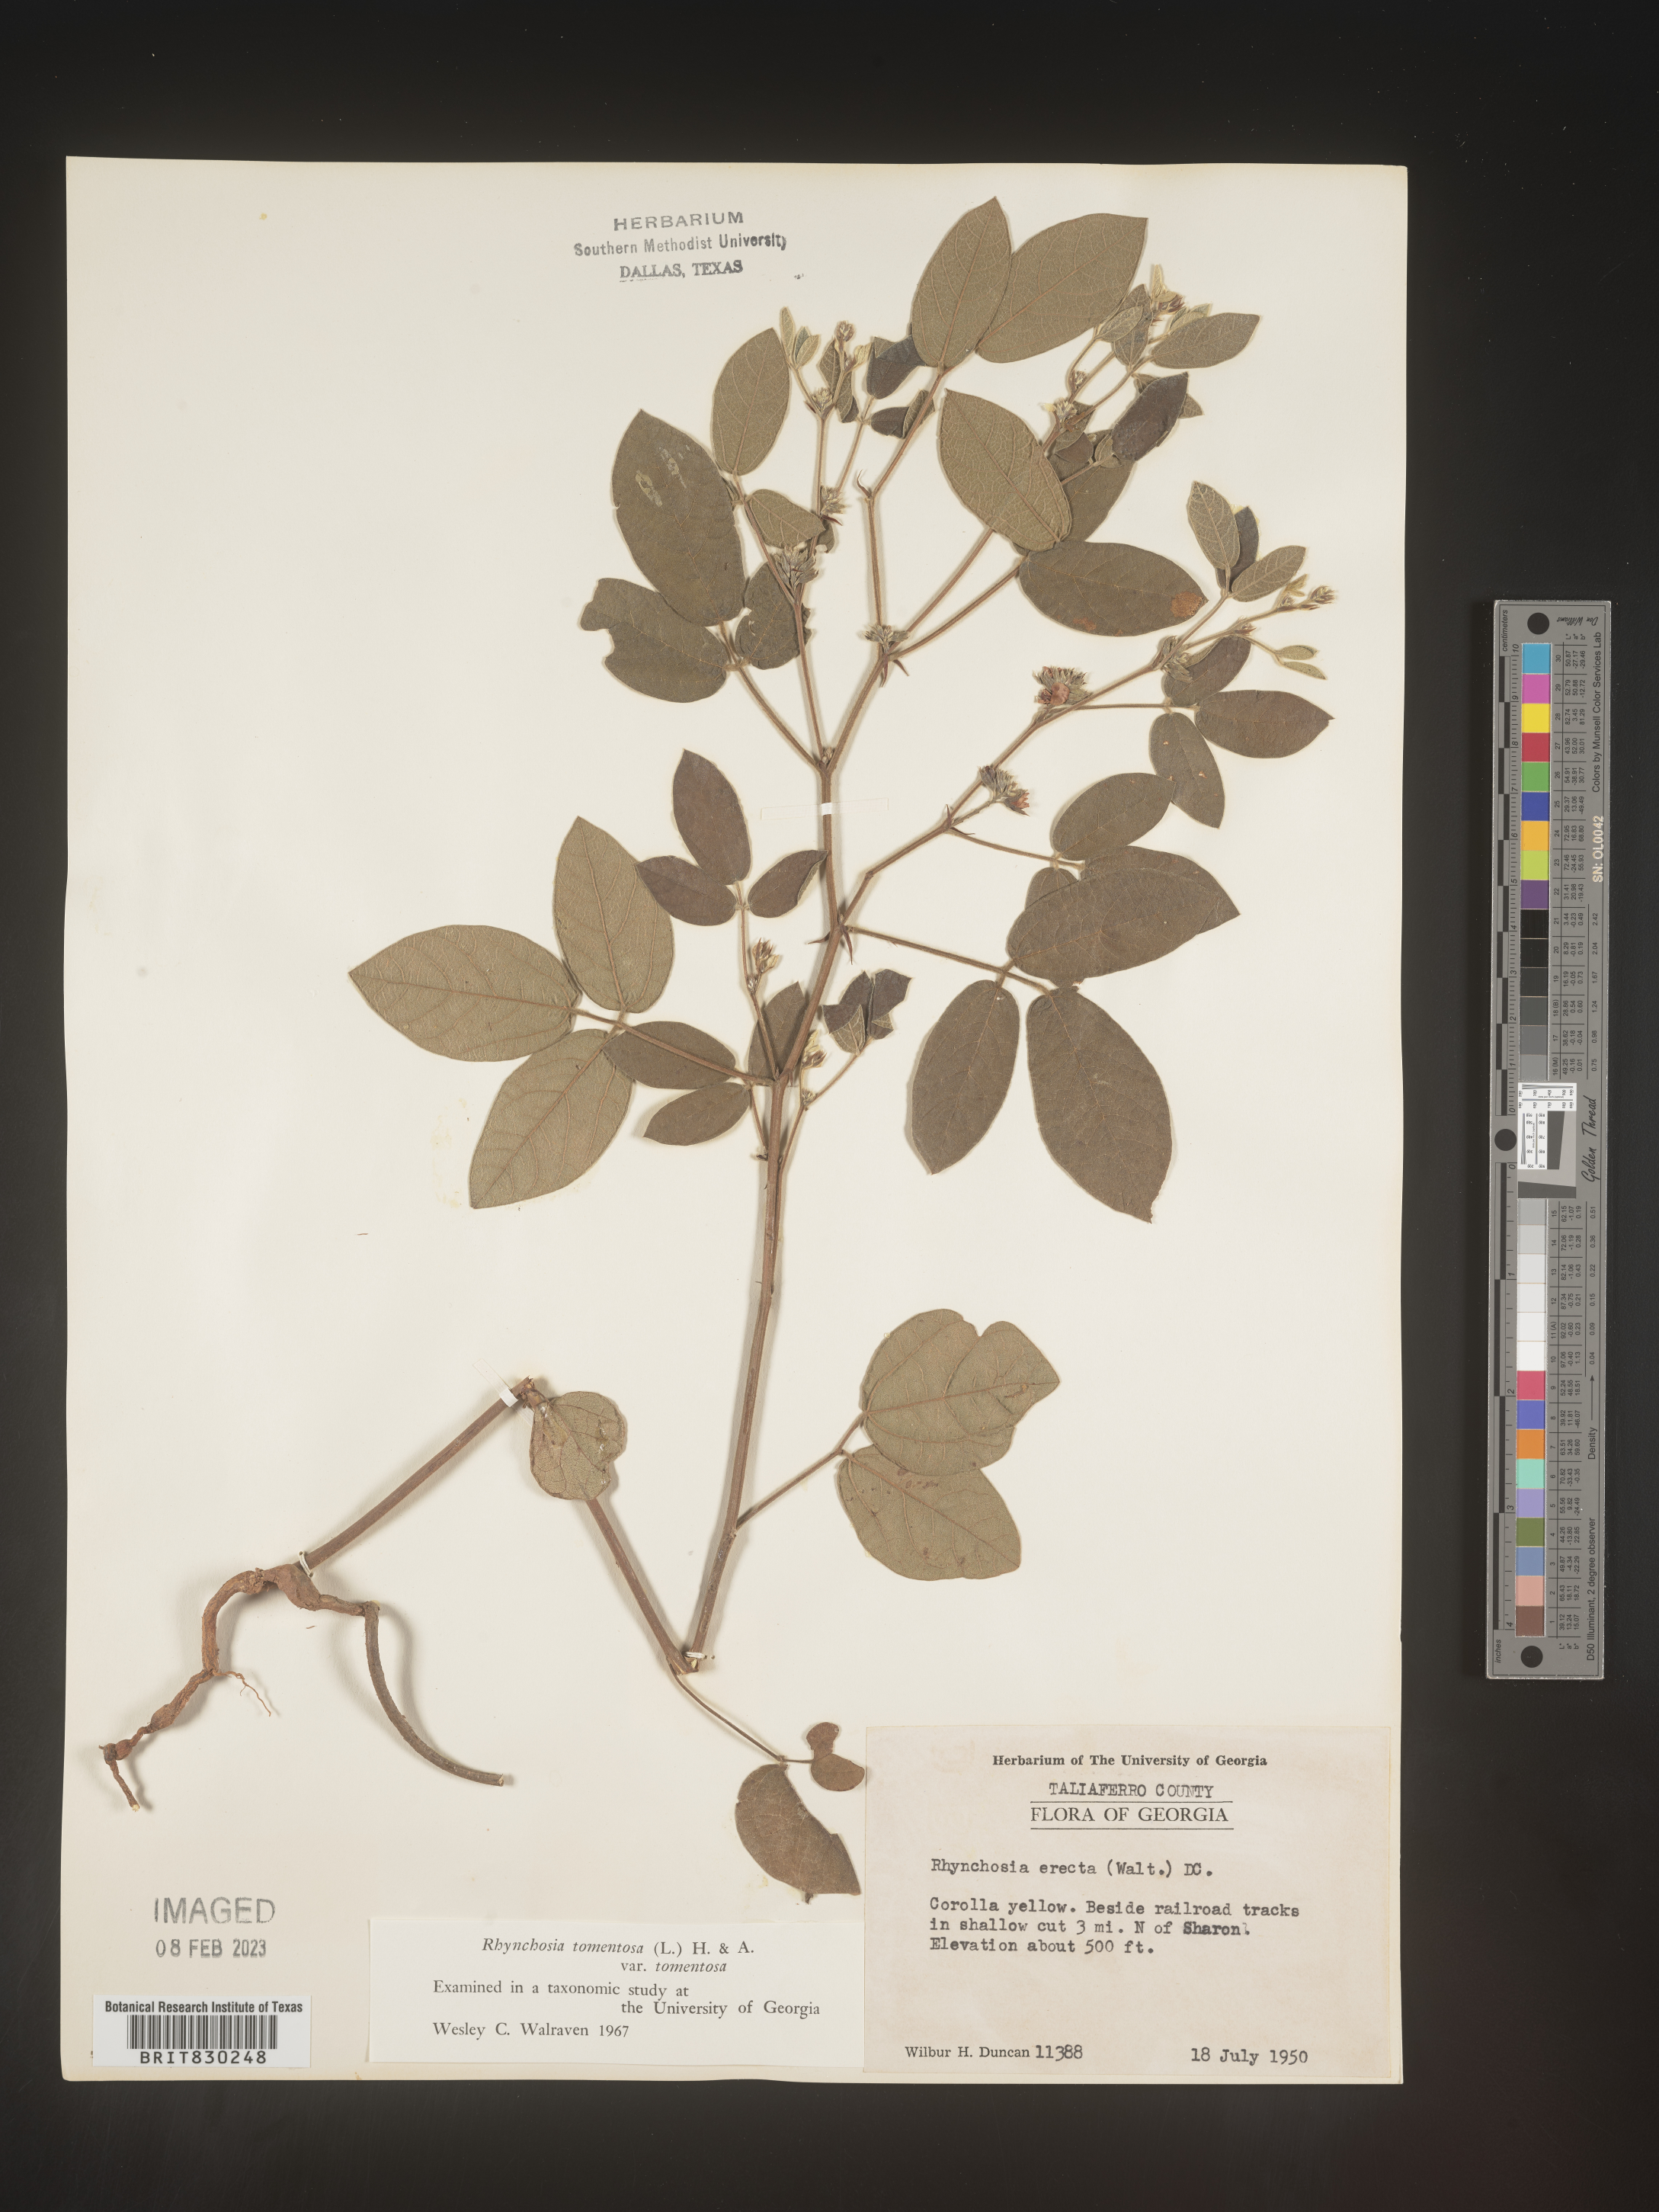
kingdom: Plantae
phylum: Tracheophyta
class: Magnoliopsida
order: Fabales
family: Fabaceae
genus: Rhynchosia
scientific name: Rhynchosia rothii
